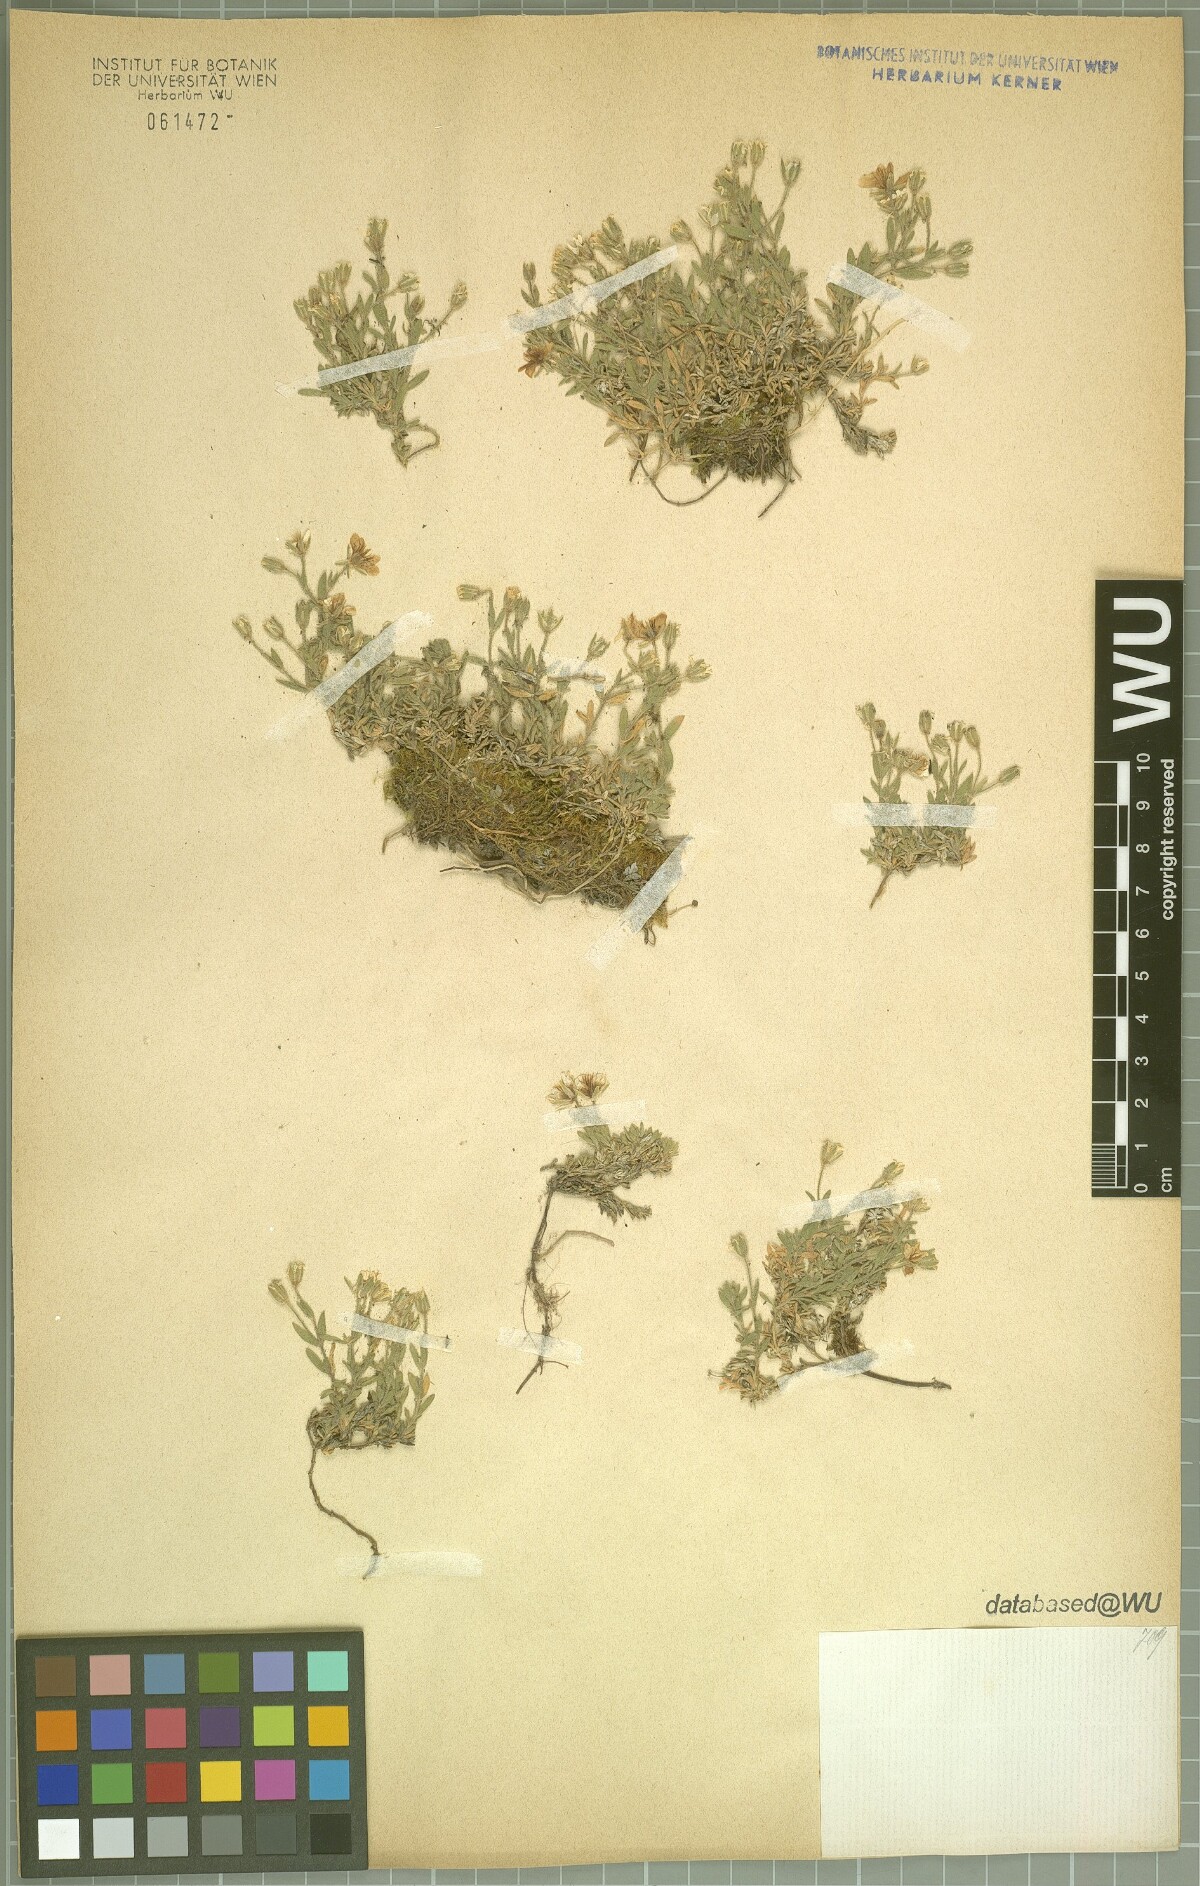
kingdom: Plantae
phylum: Tracheophyta
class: Magnoliopsida
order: Caryophyllales
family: Caryophyllaceae
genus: Arenaria
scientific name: Arenaria huteri
